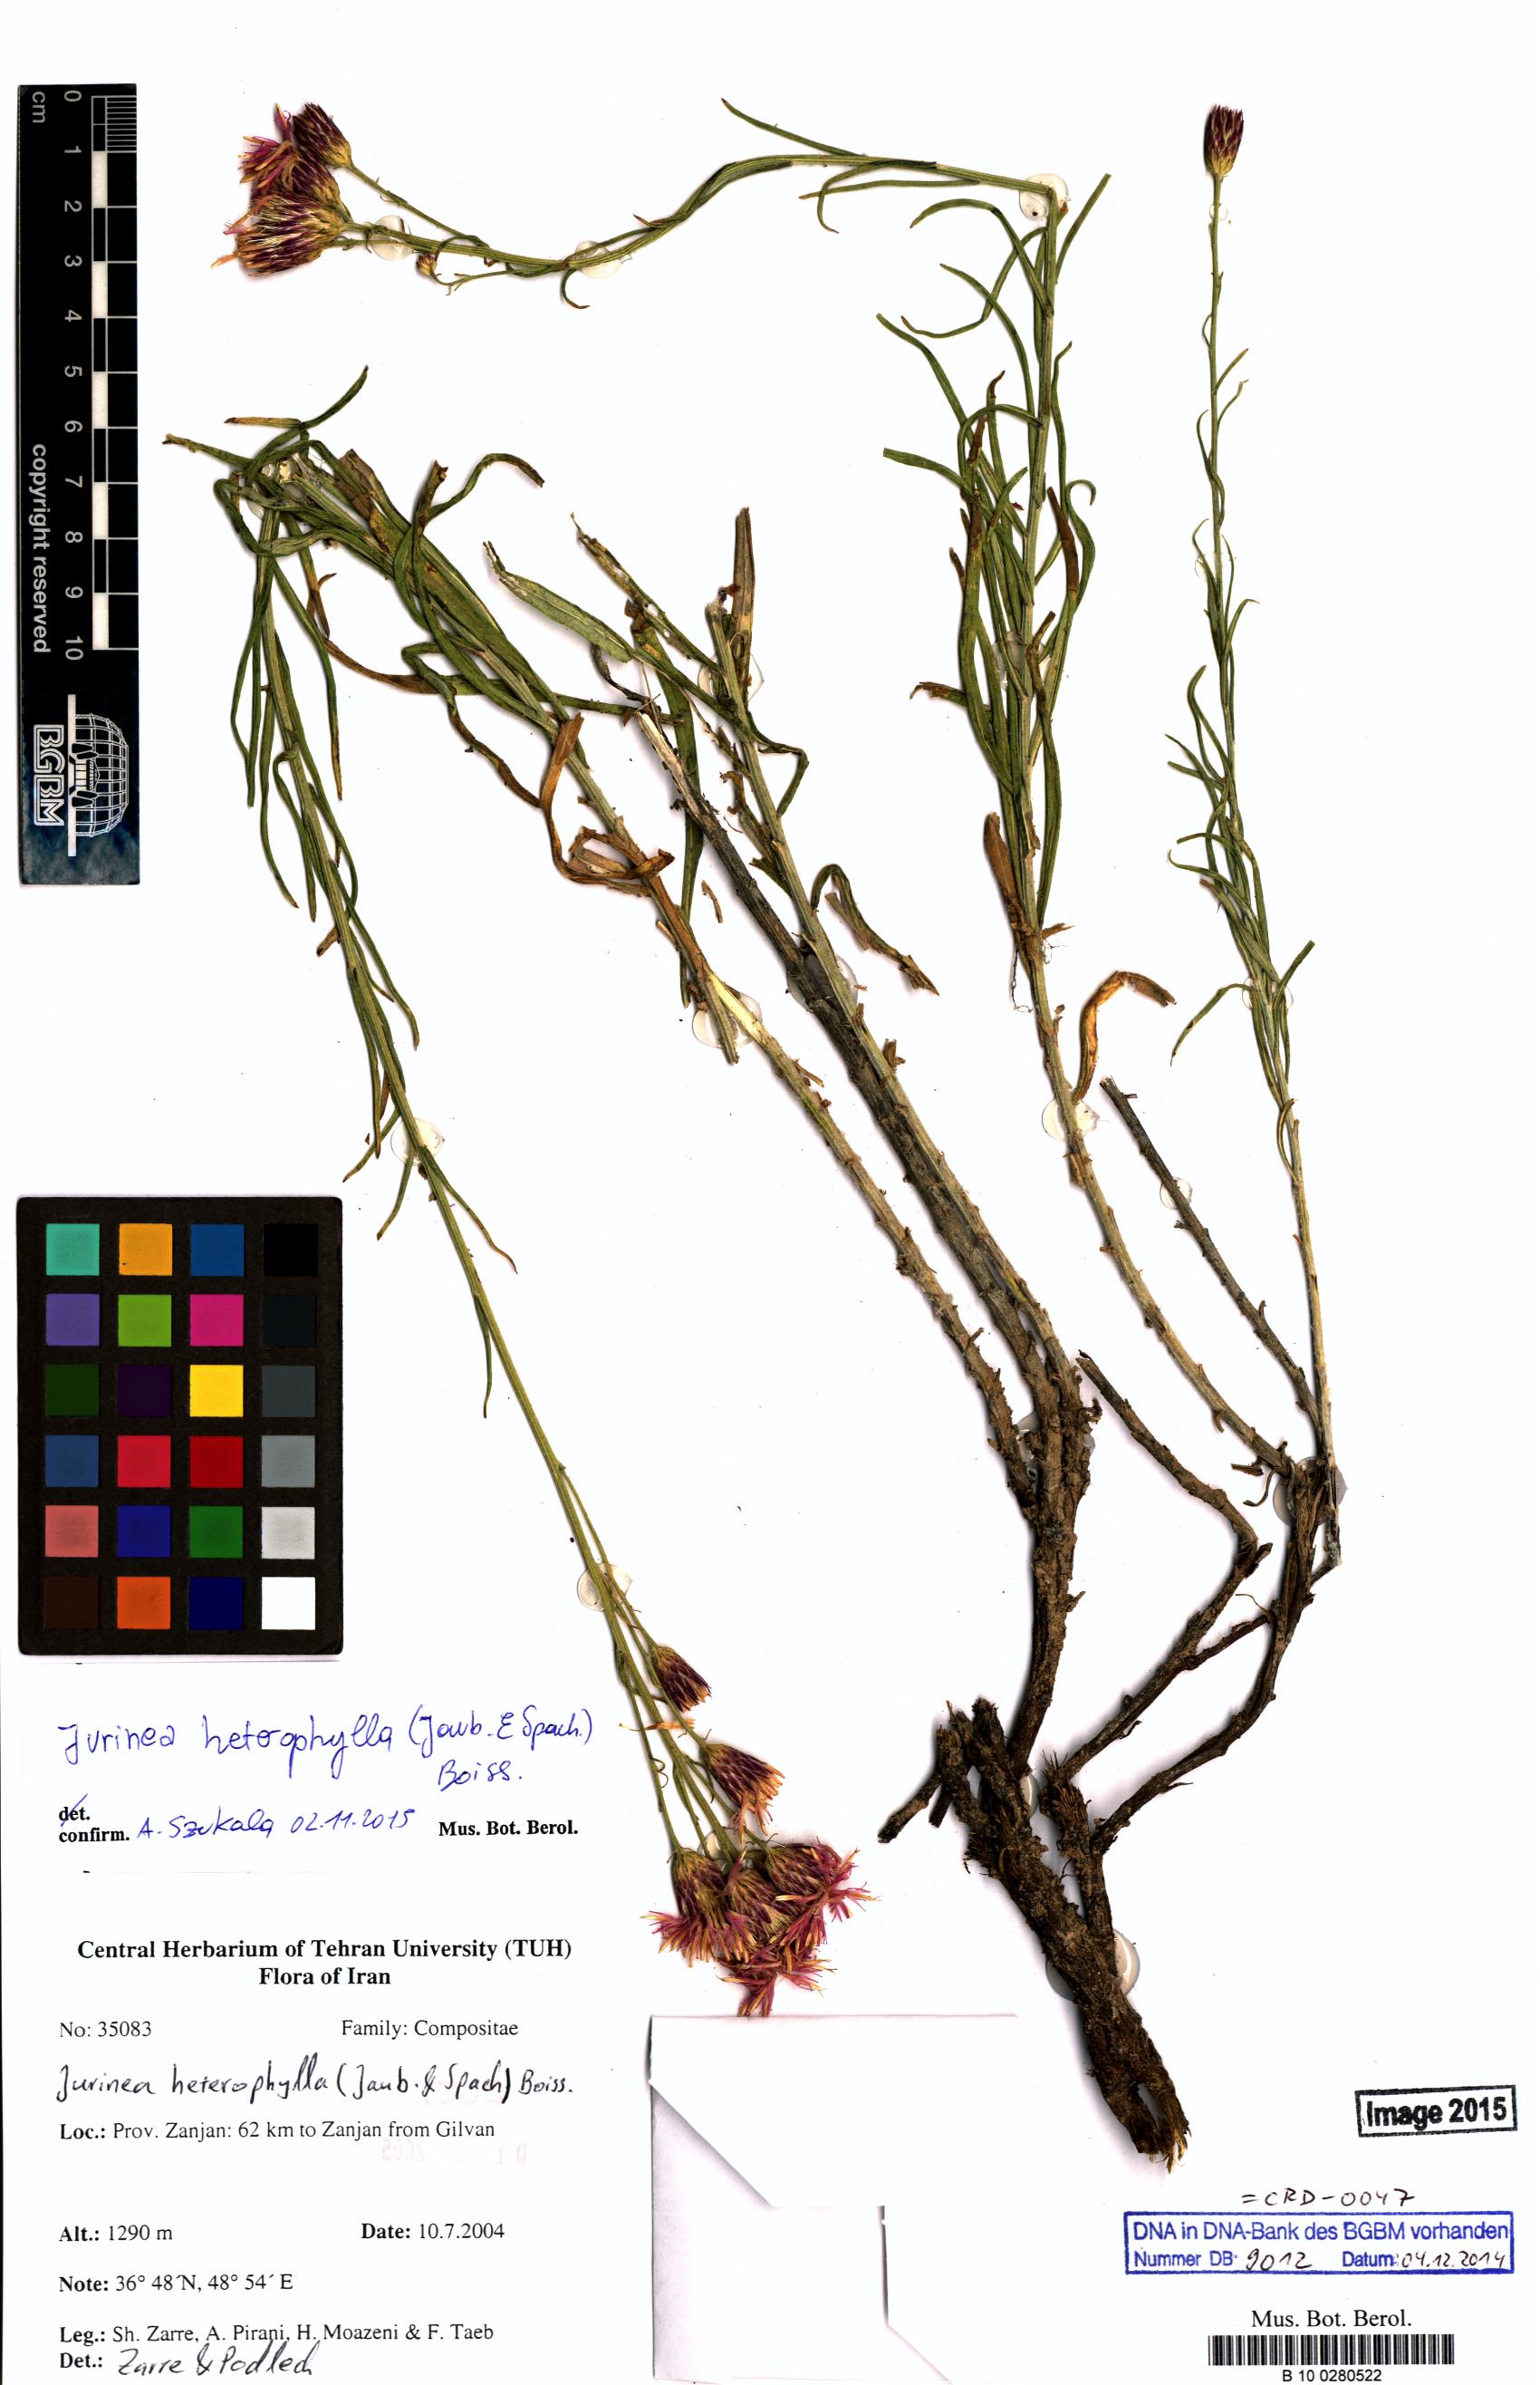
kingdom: Plantae
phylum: Tracheophyta
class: Magnoliopsida
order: Asterales
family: Asteraceae
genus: Jurinea
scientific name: Jurinea heterophylla
